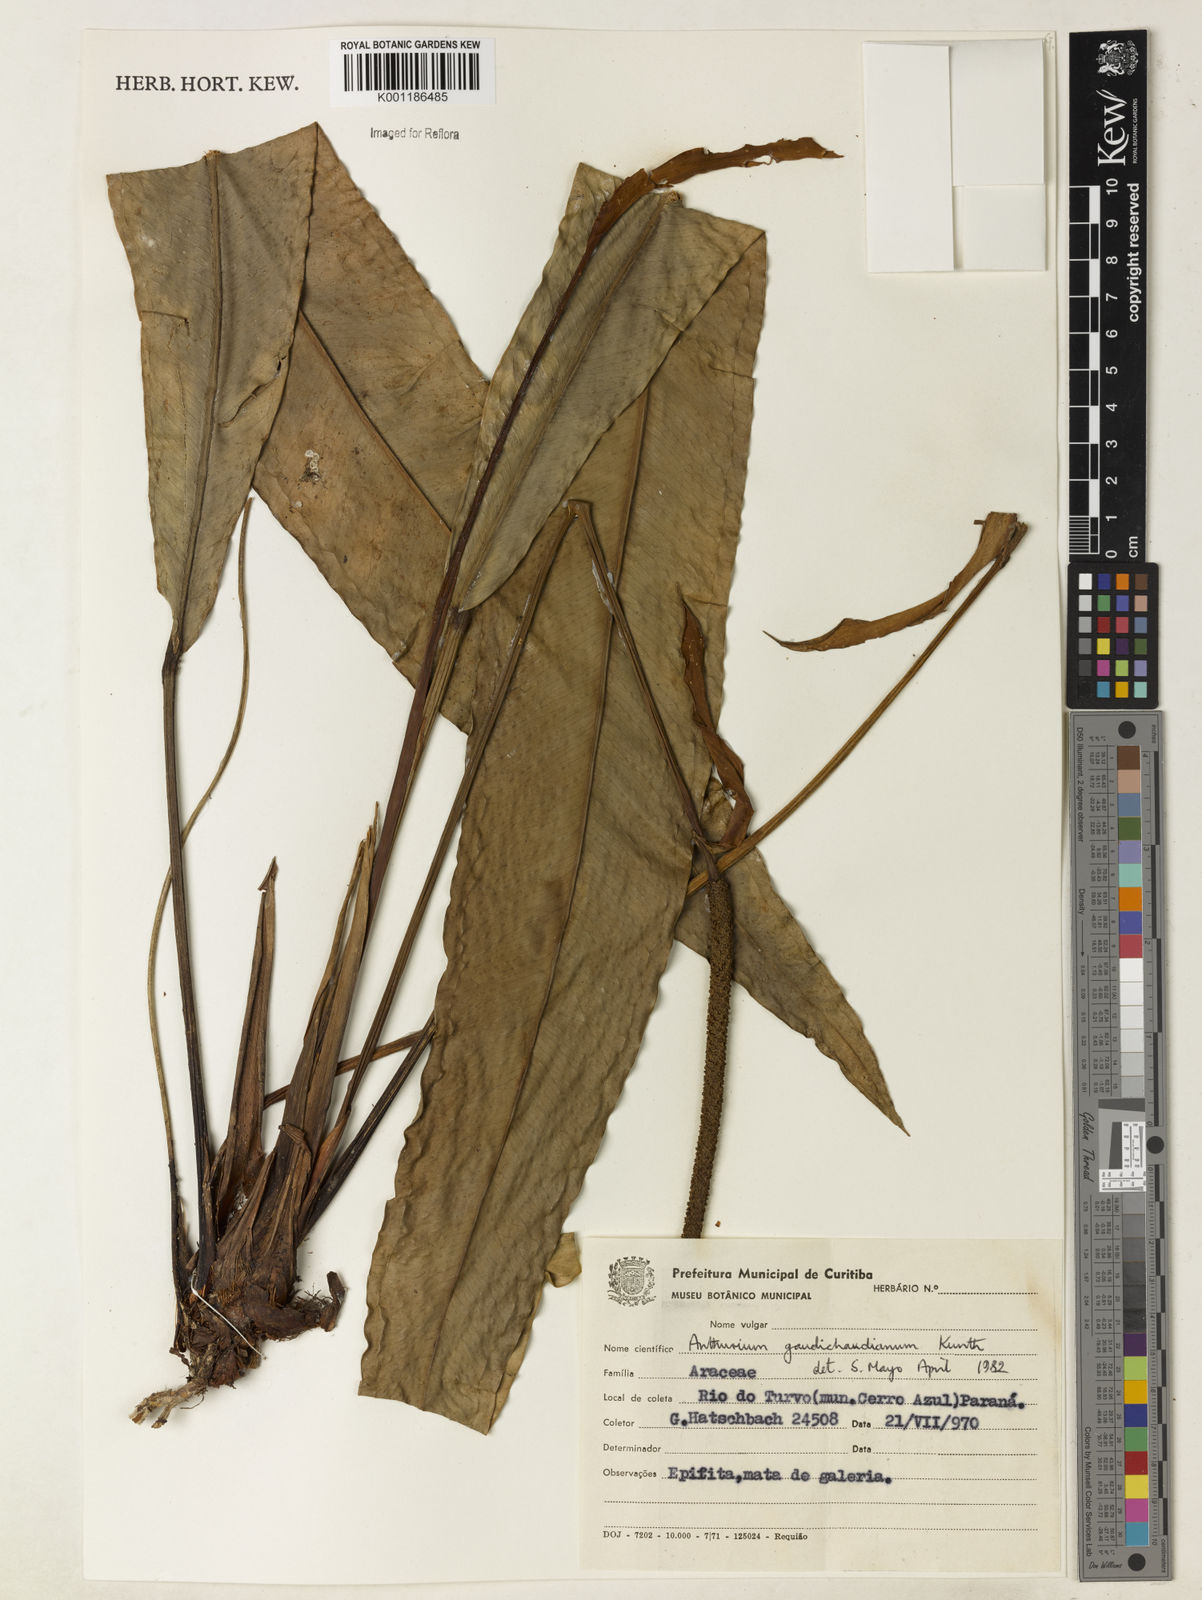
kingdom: Plantae
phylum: Tracheophyta
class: Liliopsida
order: Alismatales
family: Araceae
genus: Anthurium
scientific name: Anthurium gaudichaudianum
